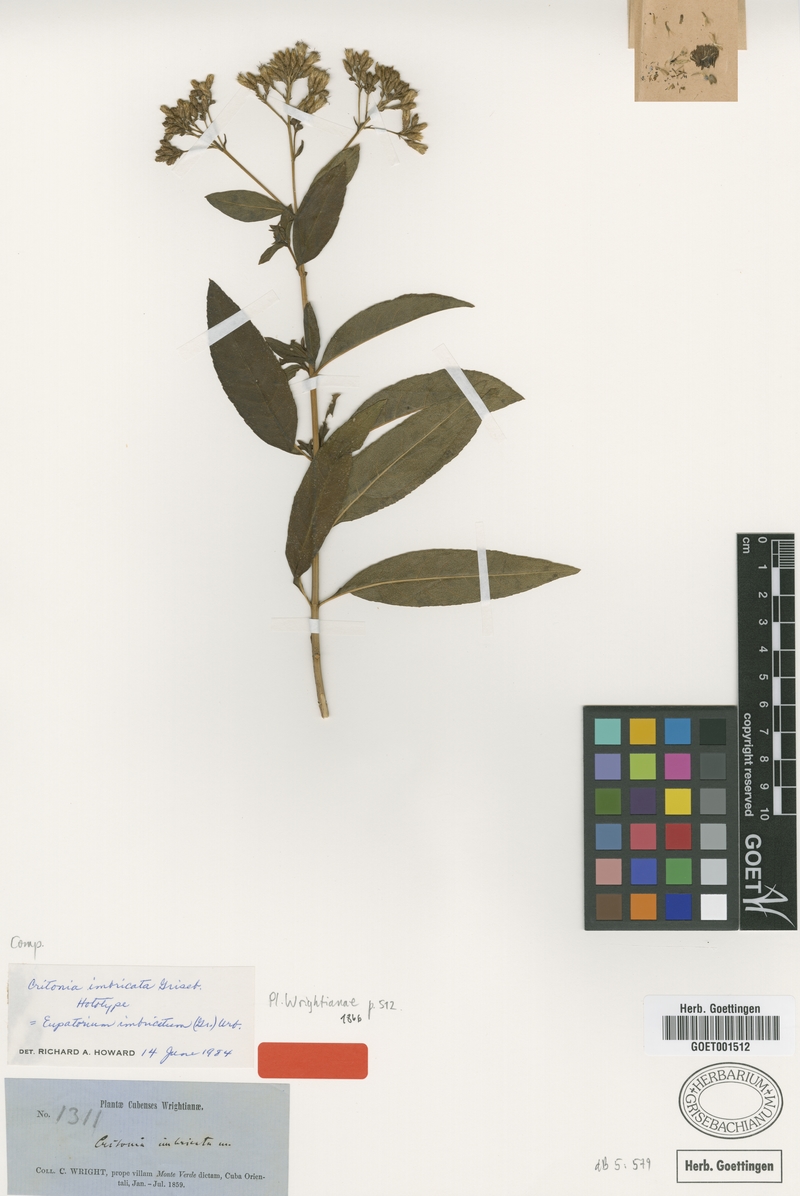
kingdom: Plantae
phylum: Tracheophyta
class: Magnoliopsida
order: Asterales
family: Asteraceae
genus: Critonia
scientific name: Critonia imbricata
